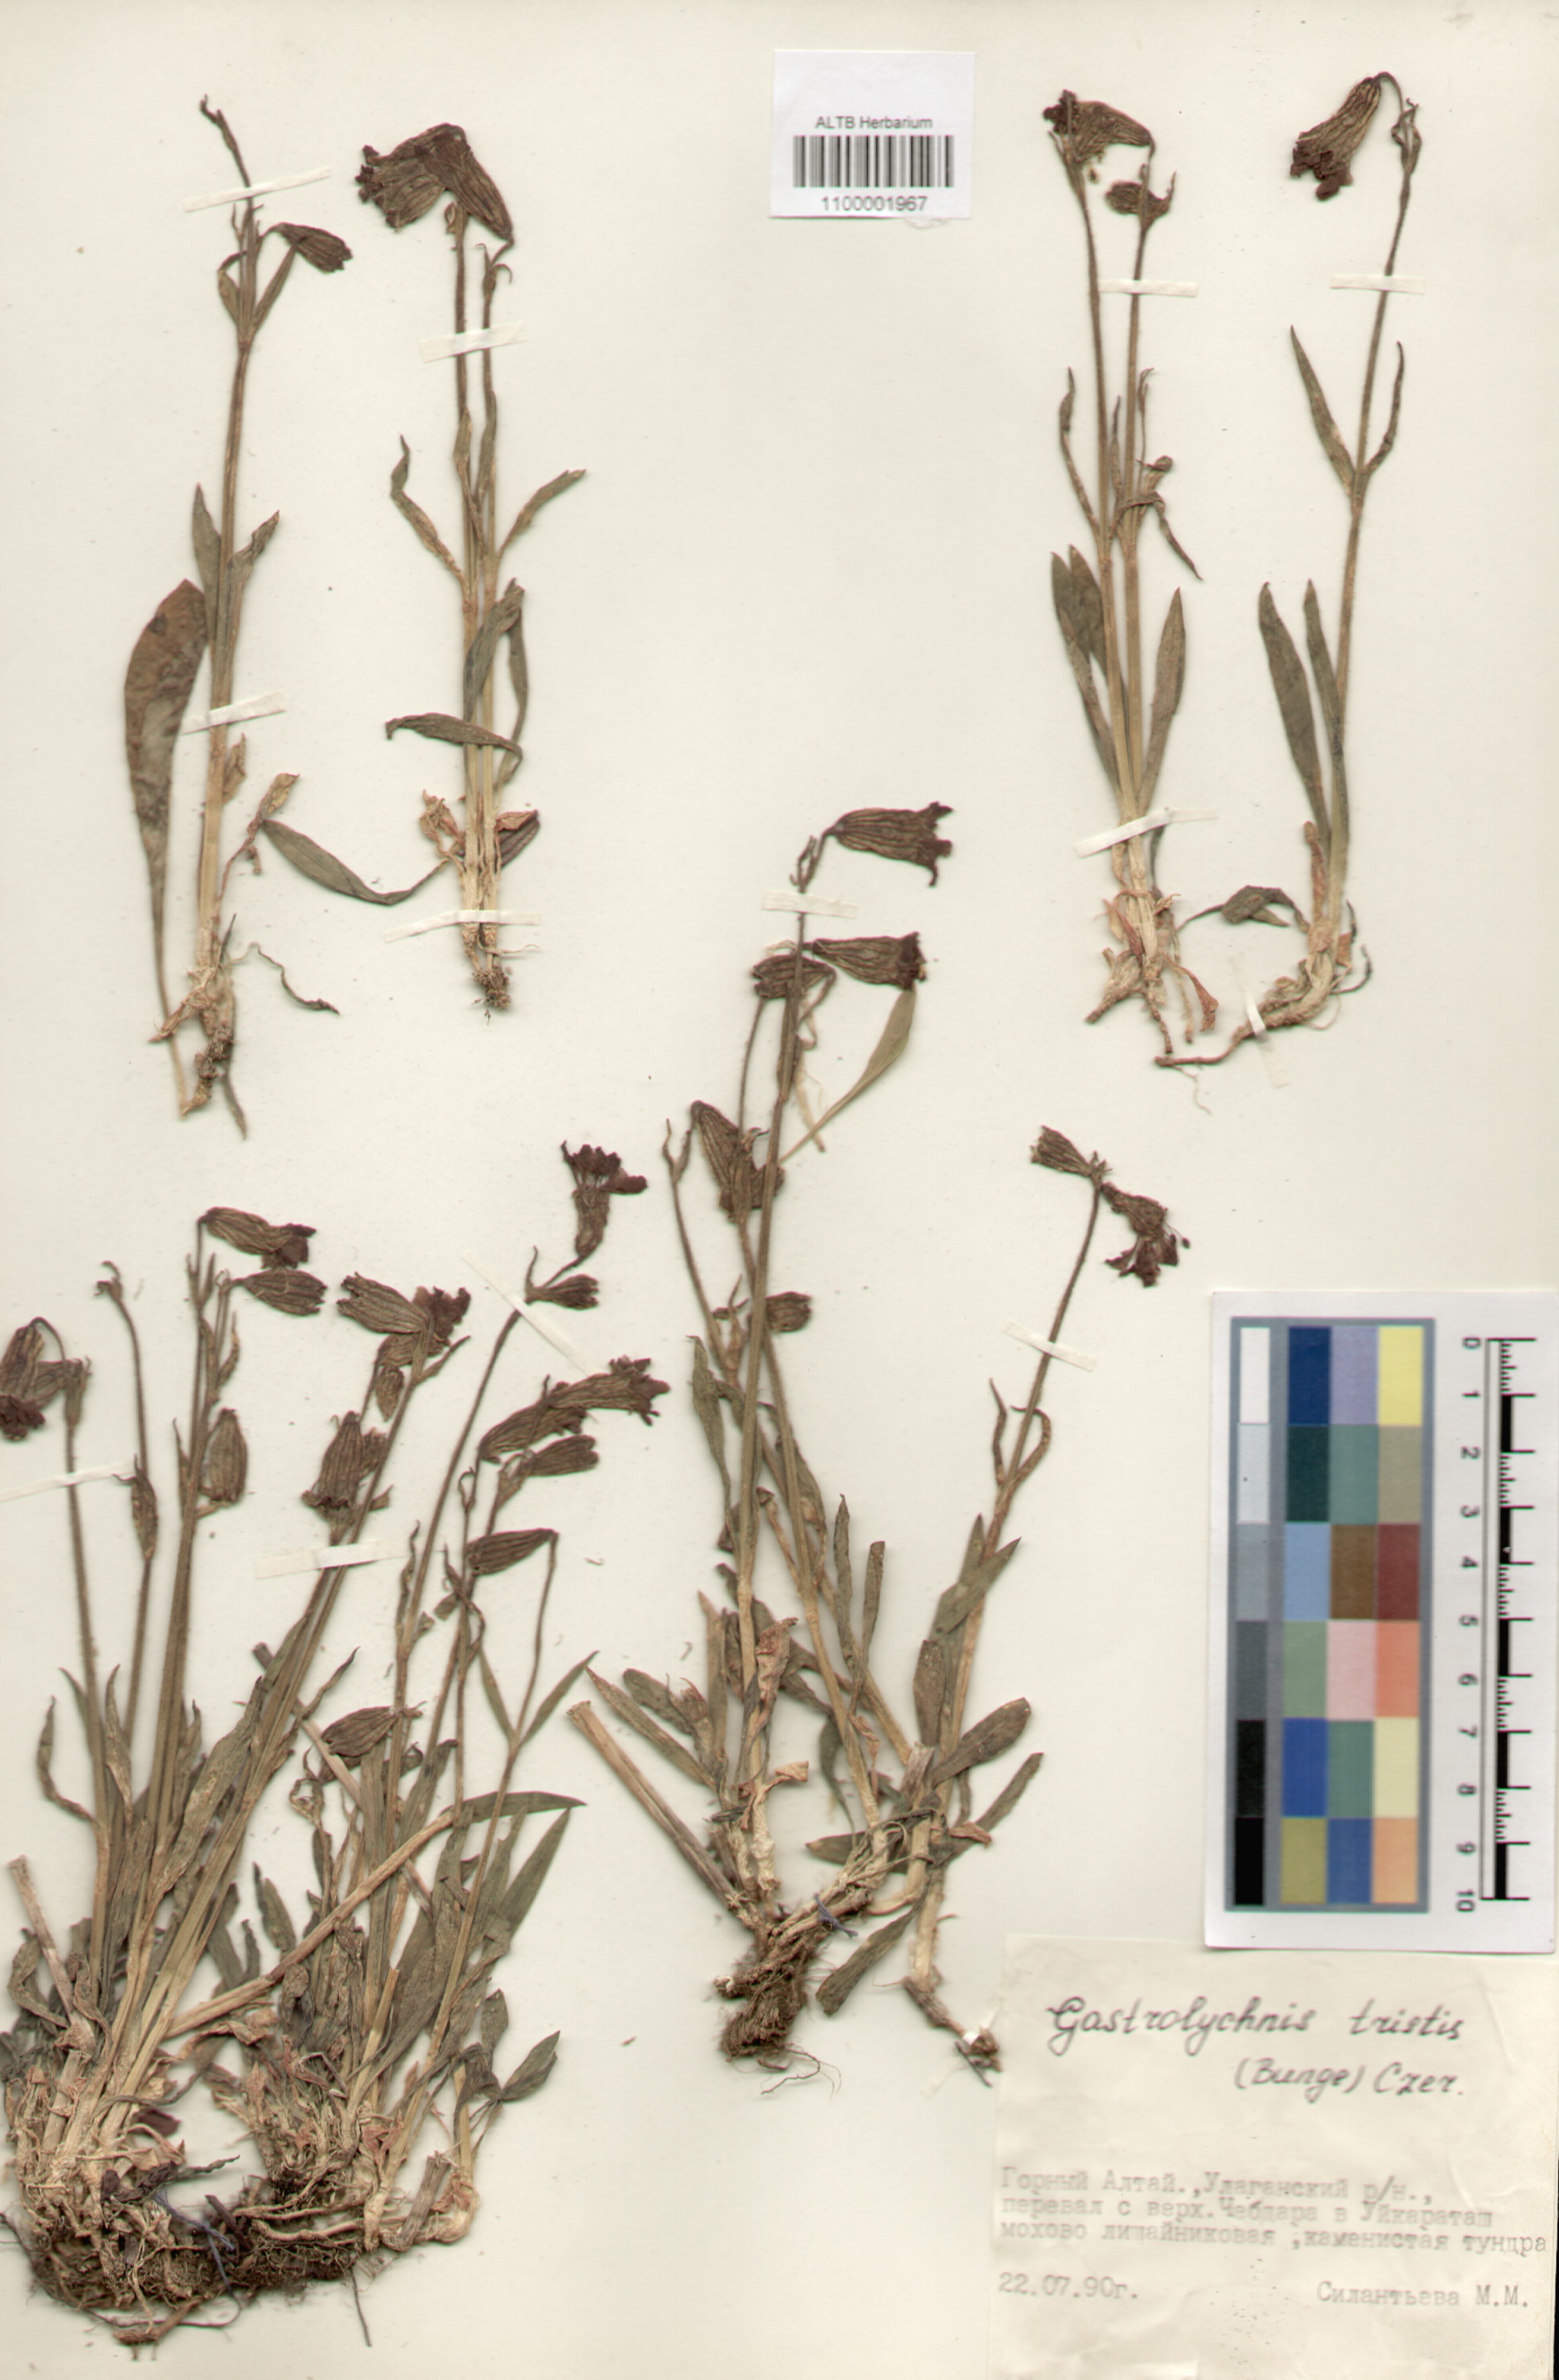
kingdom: Plantae
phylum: Tracheophyta
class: Magnoliopsida
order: Caryophyllales
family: Caryophyllaceae
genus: Silene
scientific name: Silene bungei
